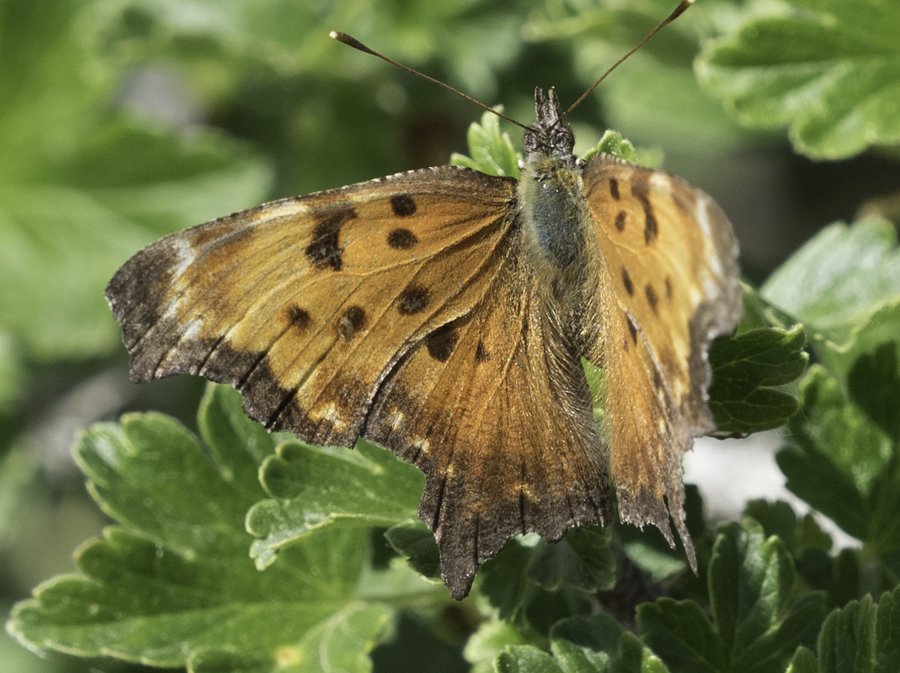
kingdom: Animalia
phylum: Arthropoda
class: Insecta
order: Lepidoptera
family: Nymphalidae
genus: Polygonia
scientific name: Polygonia progne
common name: Gray Comma
